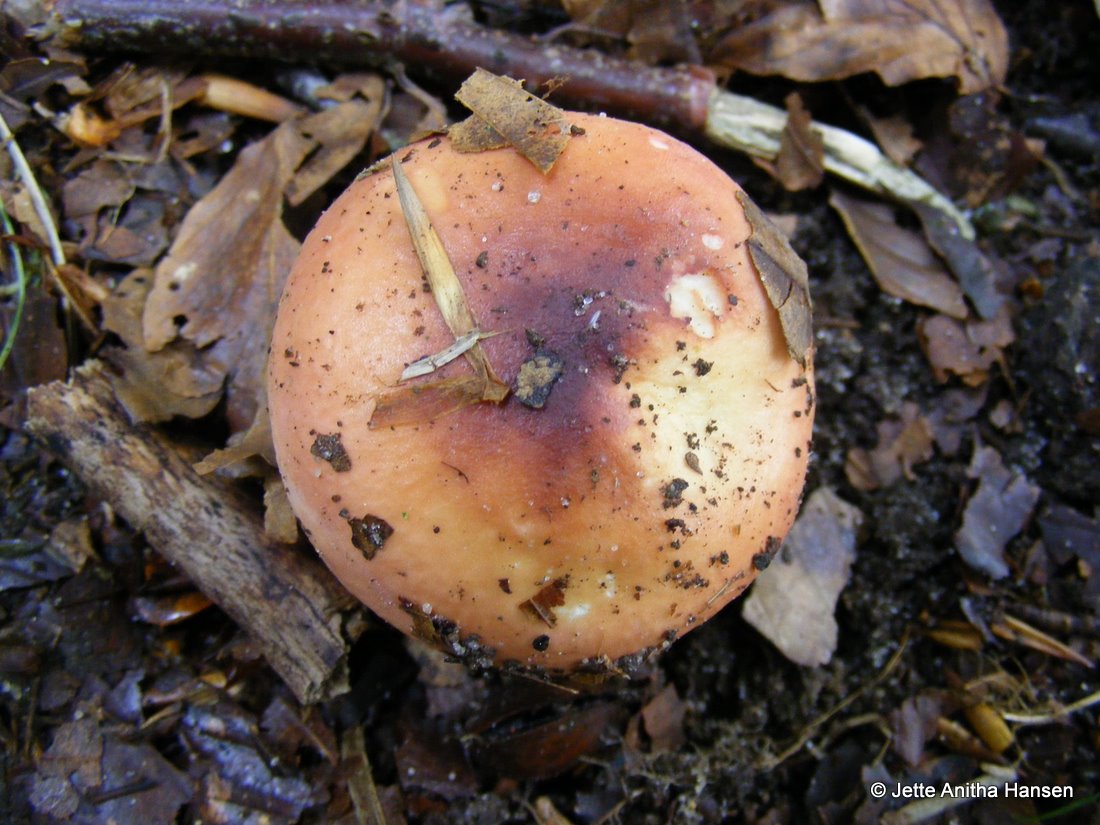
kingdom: Fungi
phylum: Basidiomycota
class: Agaricomycetes
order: Russulales
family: Russulaceae
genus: Russula
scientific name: Russula aurora
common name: rosa skørhat
